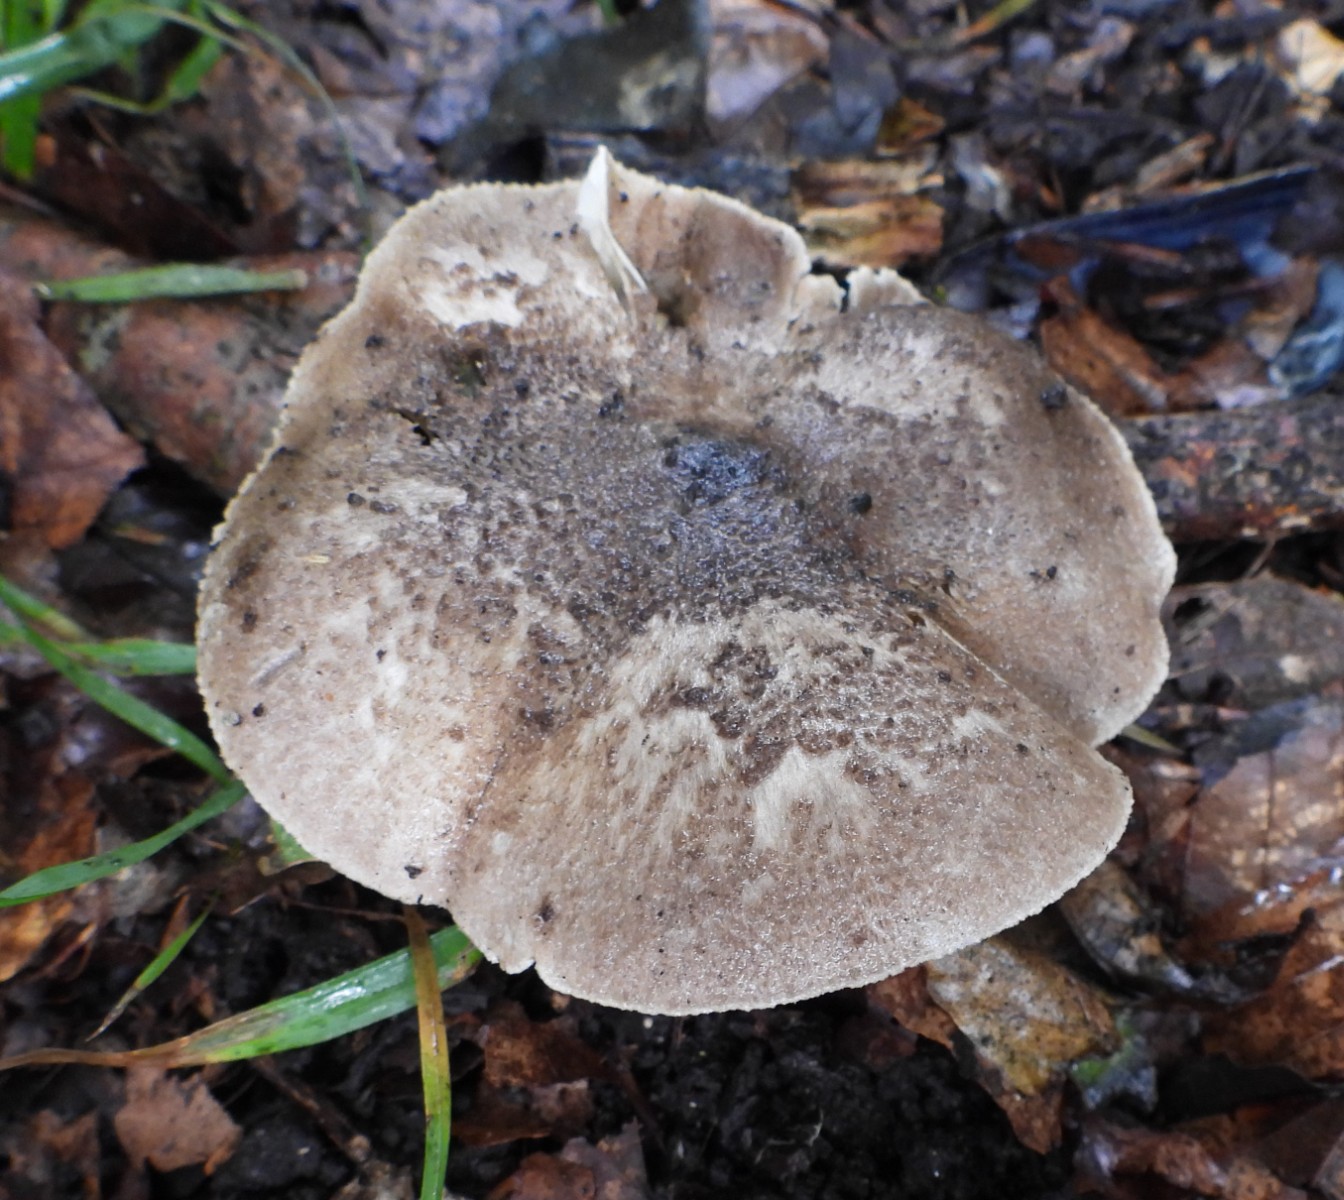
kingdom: Fungi
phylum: Basidiomycota
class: Agaricomycetes
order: Agaricales
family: Tricholomataceae
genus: Tricholoma
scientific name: Tricholoma scalpturatum
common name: gulplettet ridderhat
